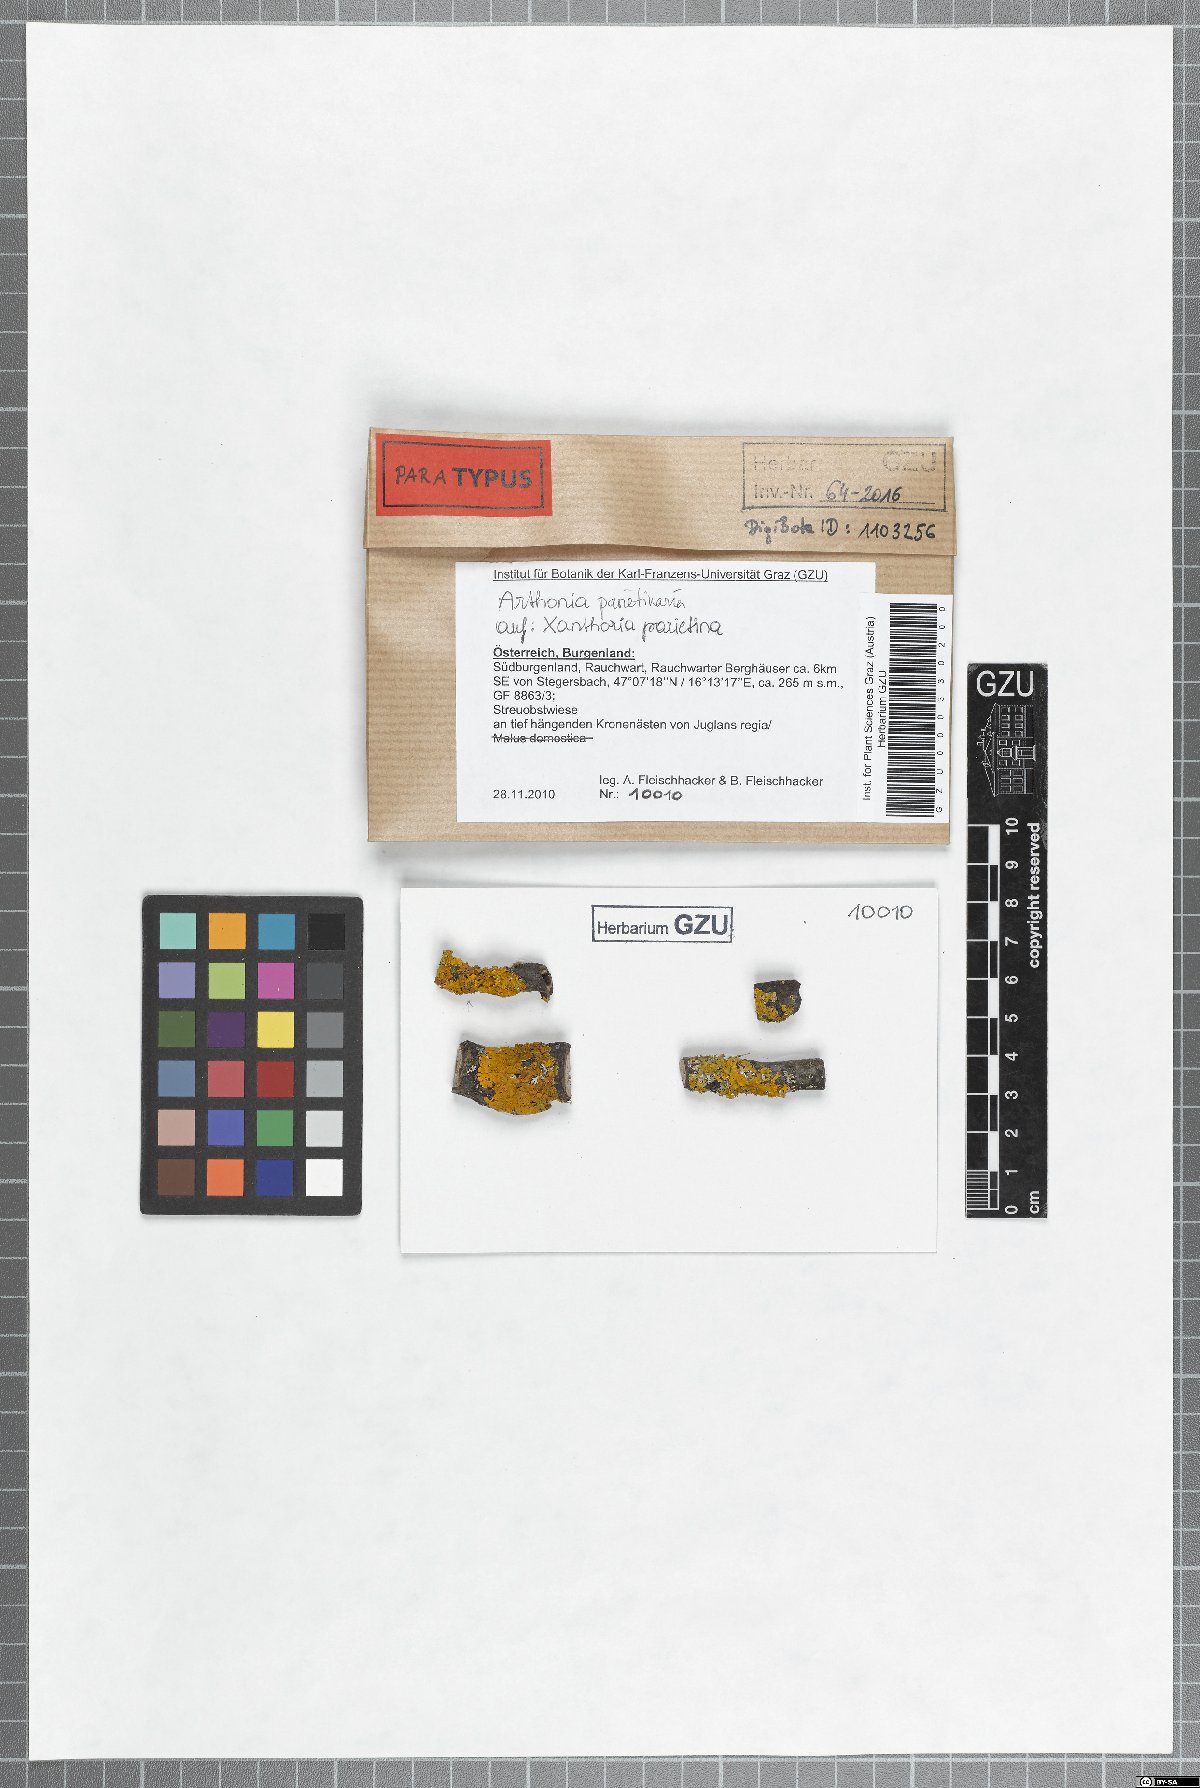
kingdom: Fungi
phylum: Ascomycota
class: Arthoniomycetes
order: Arthoniales
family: Arthoniaceae
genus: Bryostigma
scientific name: Bryostigma parietinarium
